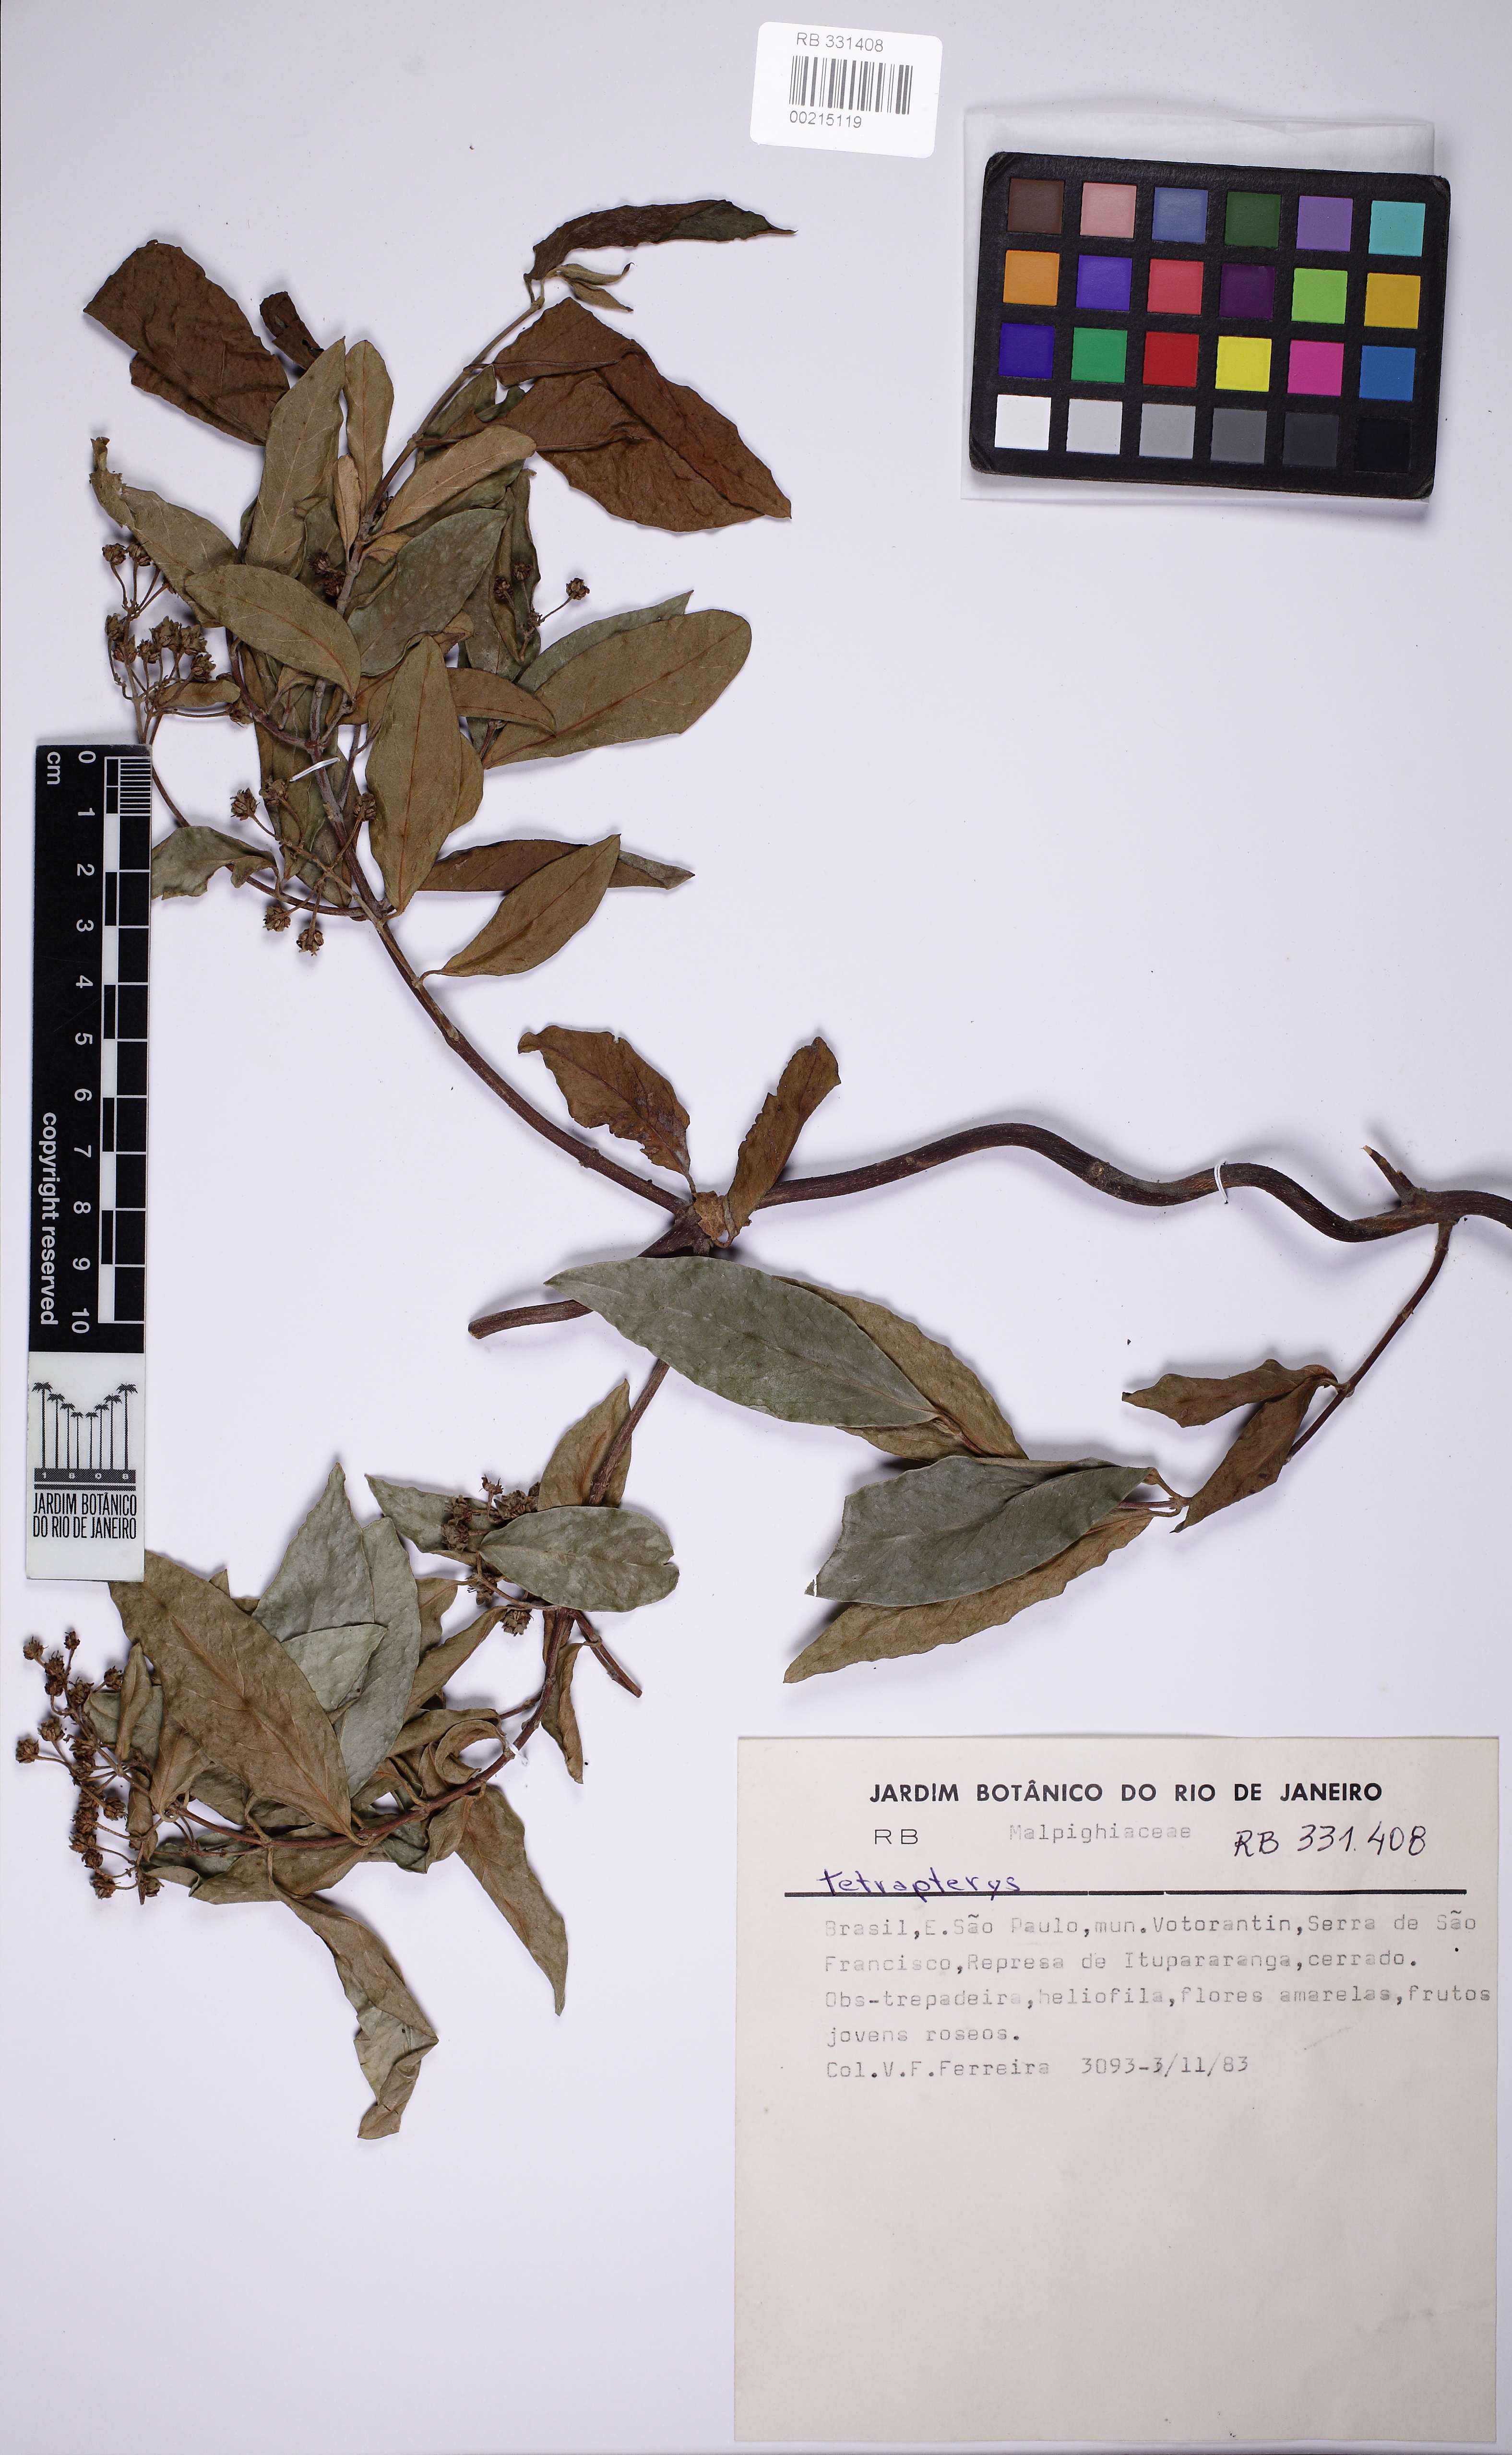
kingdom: Plantae
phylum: Tracheophyta
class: Magnoliopsida
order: Malpighiales
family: Malpighiaceae
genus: Niedenzuella
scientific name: Niedenzuella lucida
